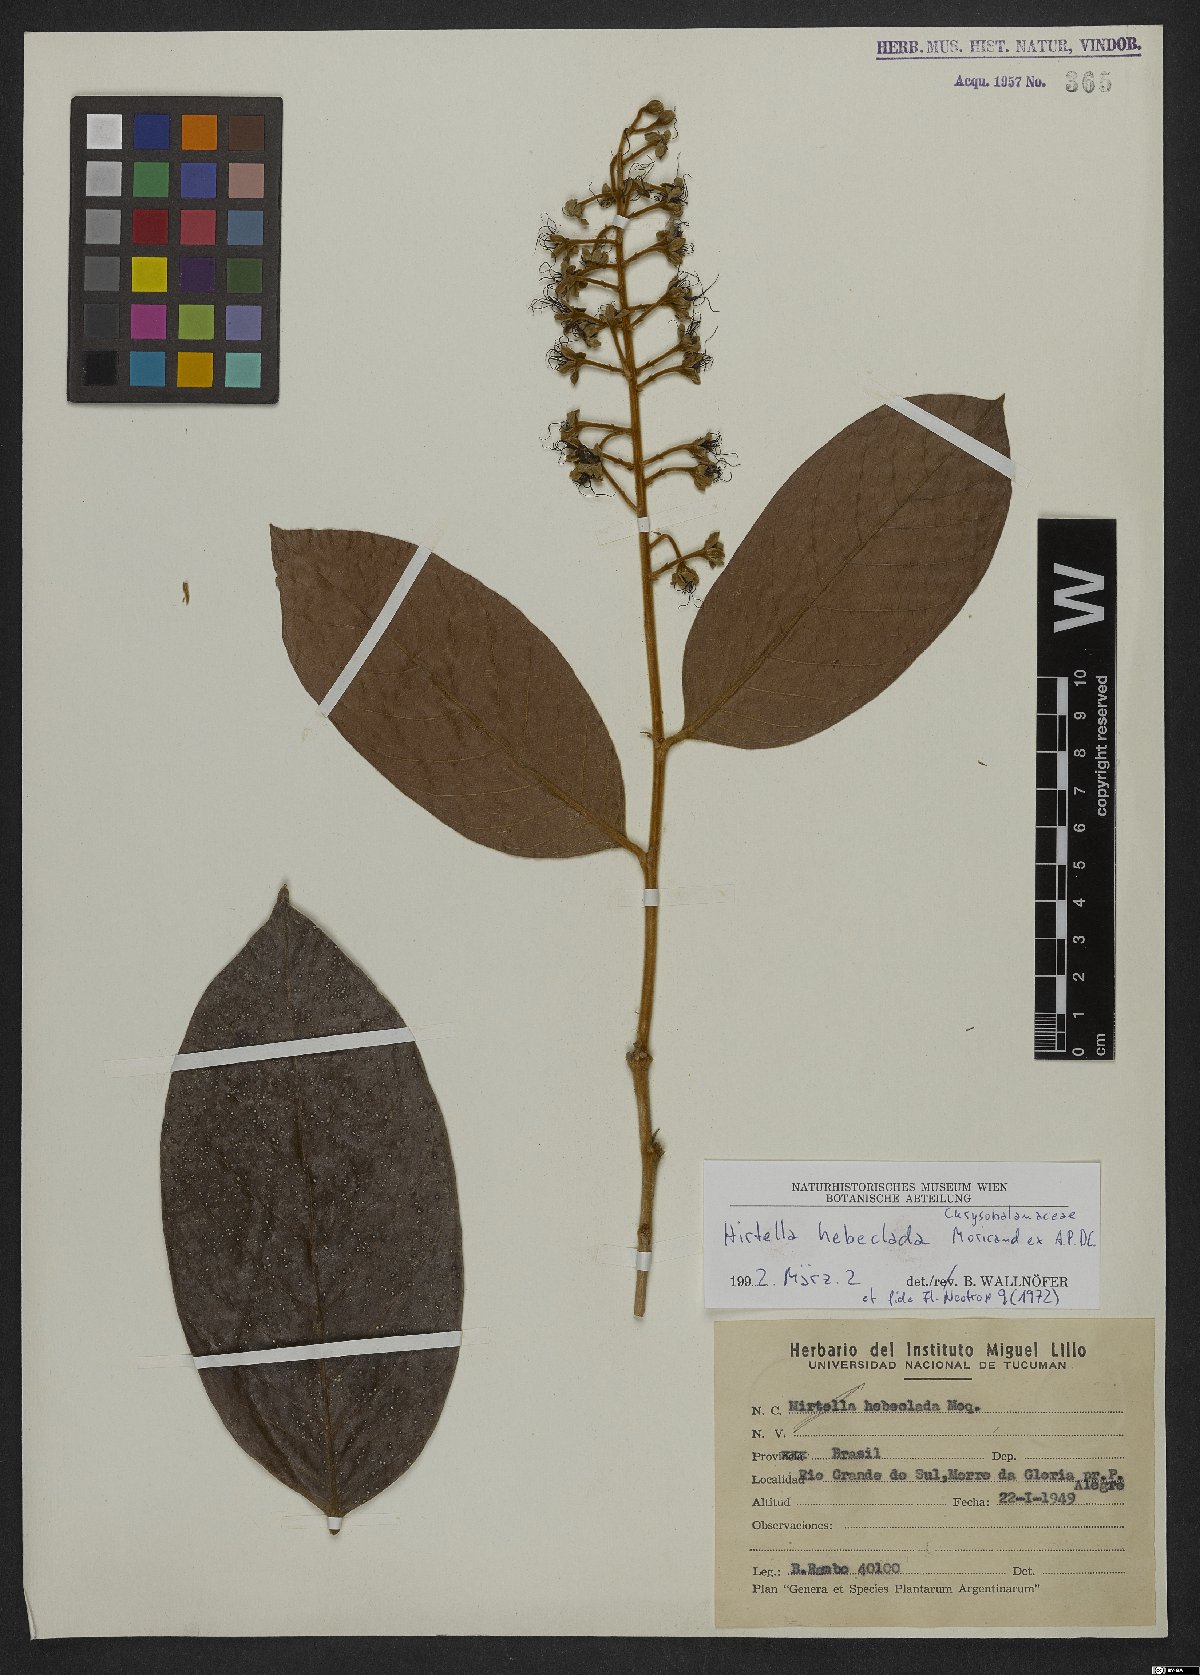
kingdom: Plantae
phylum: Tracheophyta
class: Magnoliopsida
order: Malpighiales
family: Chrysobalanaceae
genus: Hirtella
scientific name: Hirtella hebeclada
